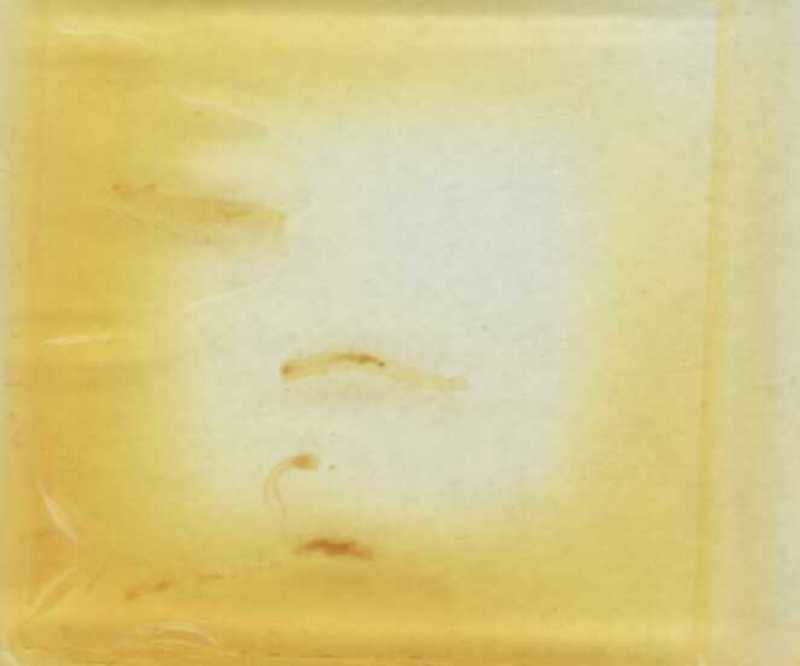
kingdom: Animalia
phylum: Arthropoda
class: Chilopoda
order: Geophilomorpha
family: Geophilidae
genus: Geophilus
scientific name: Geophilus litorivagus
